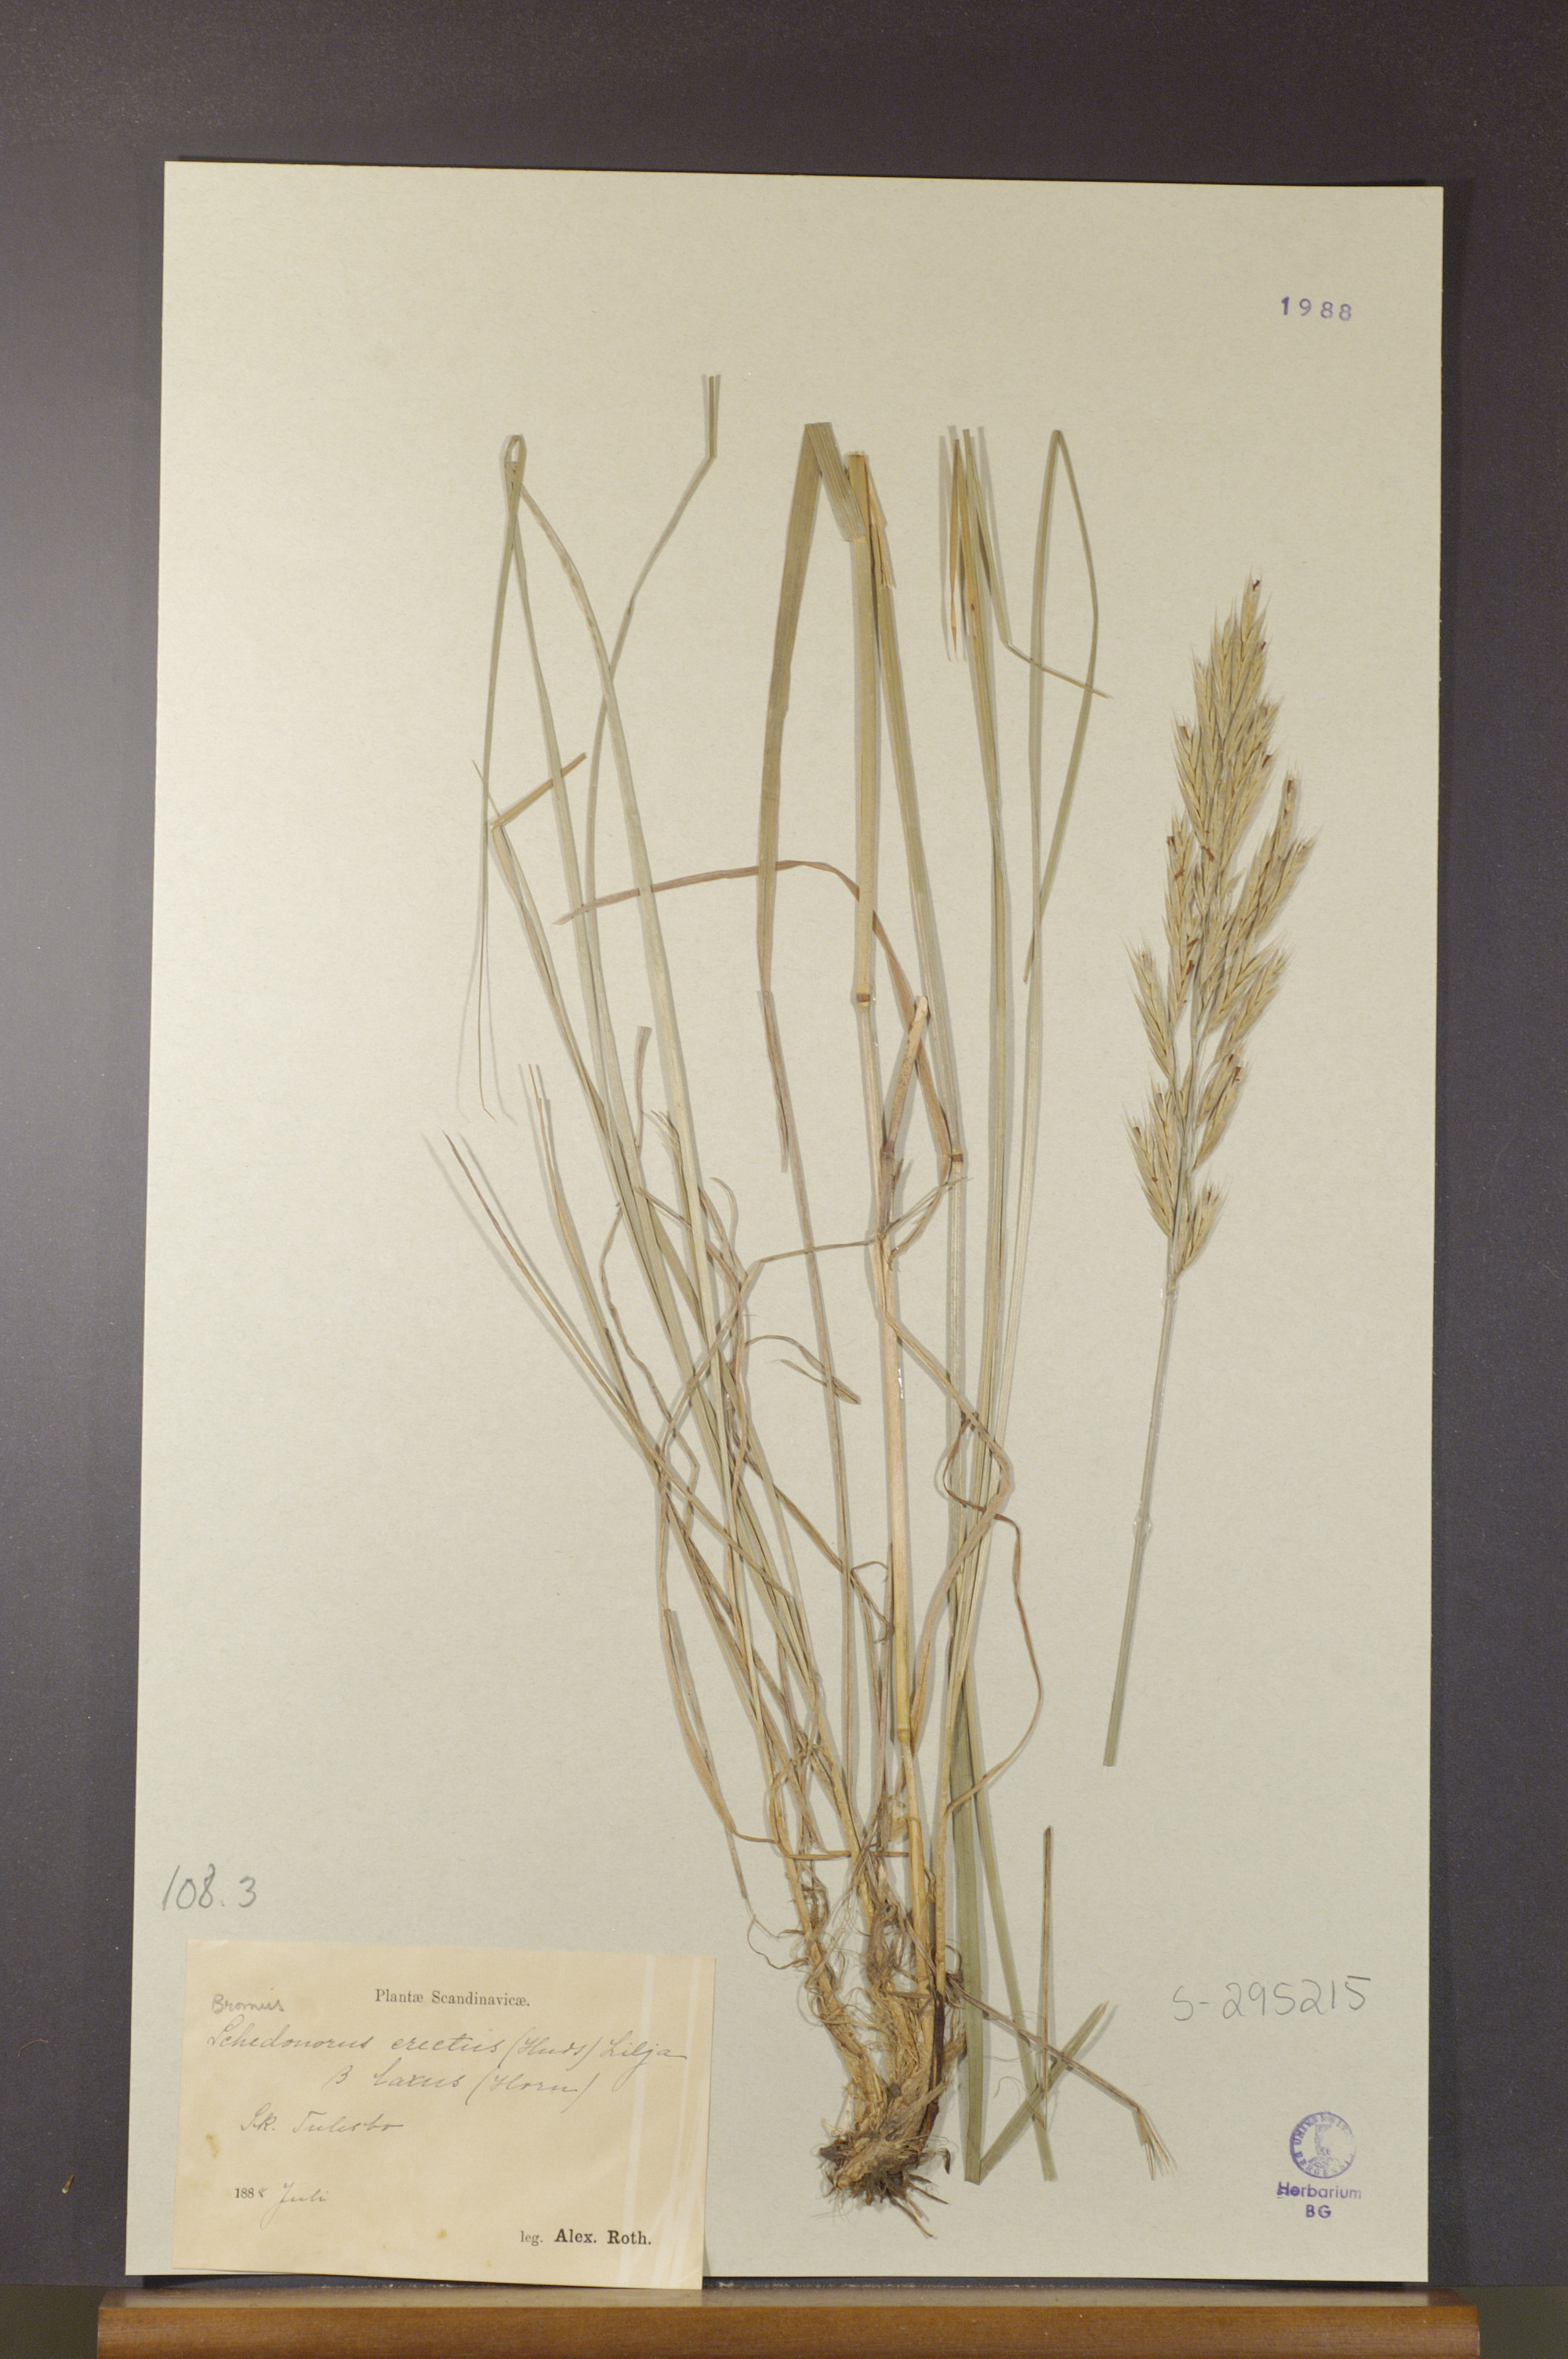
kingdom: Plantae
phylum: Tracheophyta
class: Liliopsida
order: Poales
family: Poaceae
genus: Bromus
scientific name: Bromus erectus
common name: Erect brome
